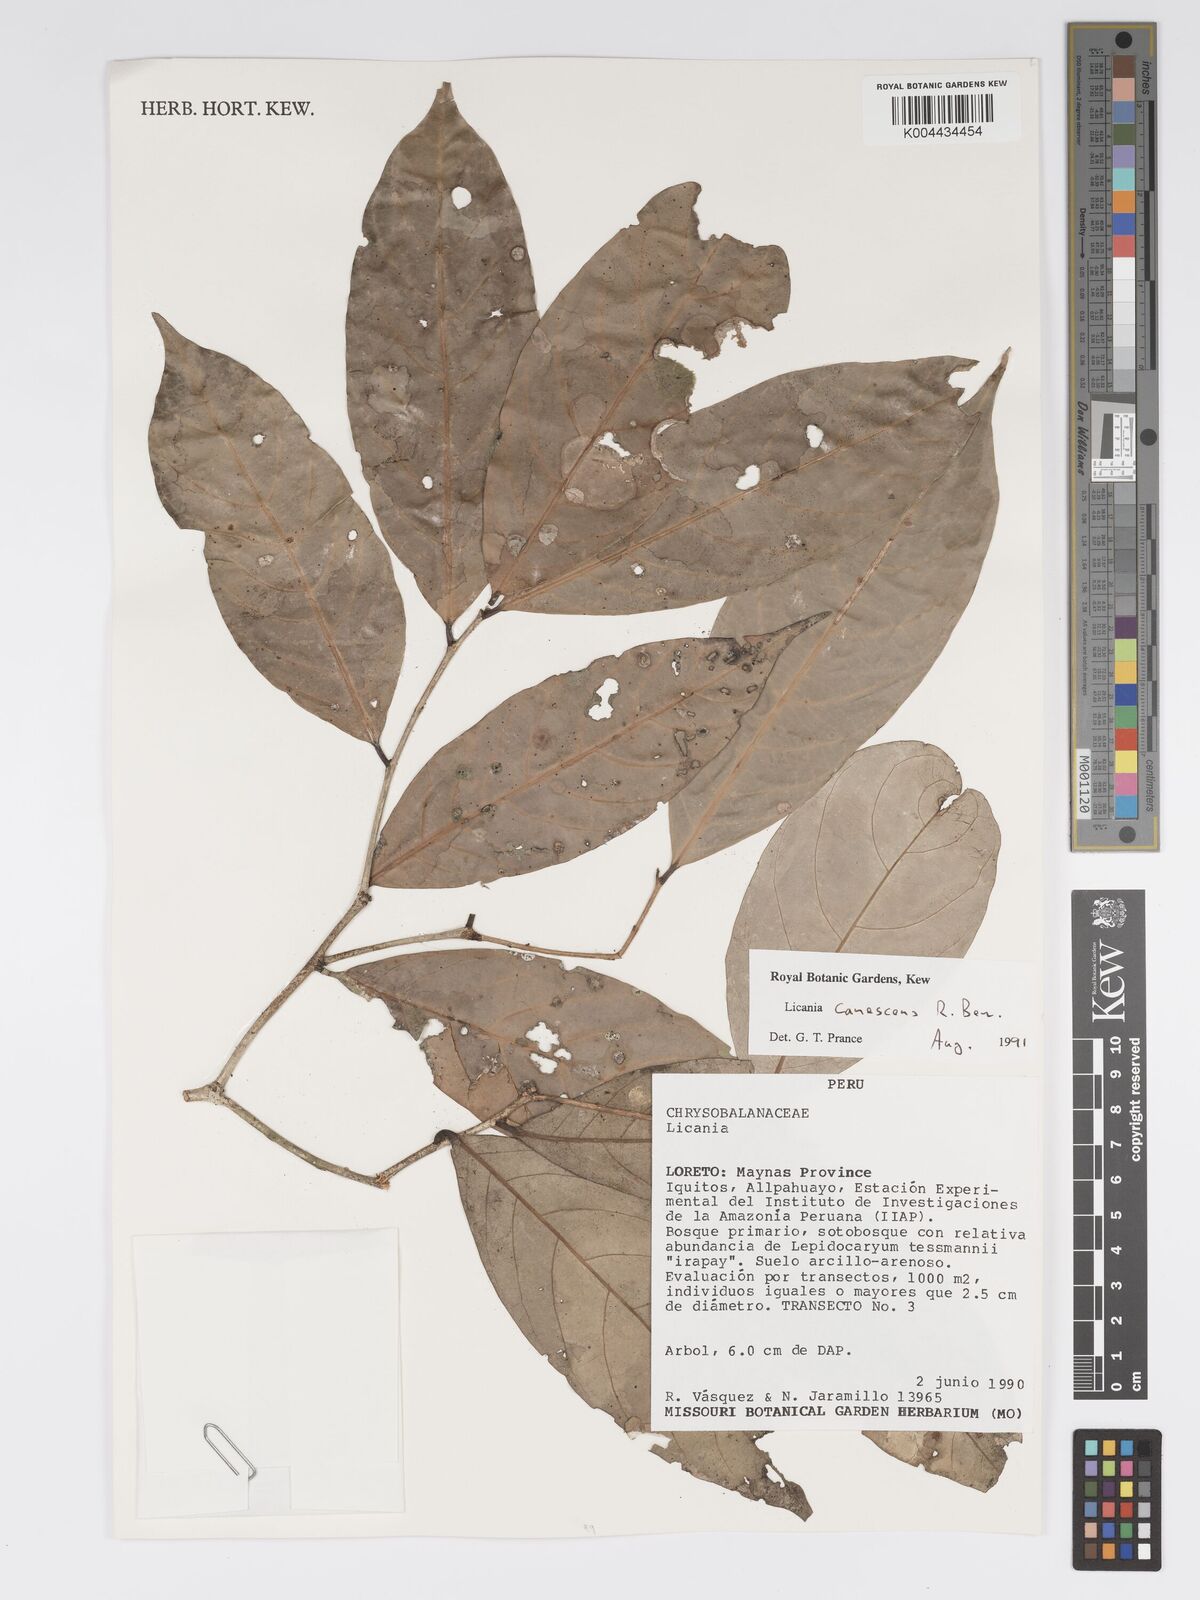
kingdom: Plantae
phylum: Tracheophyta
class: Magnoliopsida
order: Malpighiales
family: Chrysobalanaceae
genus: Licania
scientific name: Licania canescens
